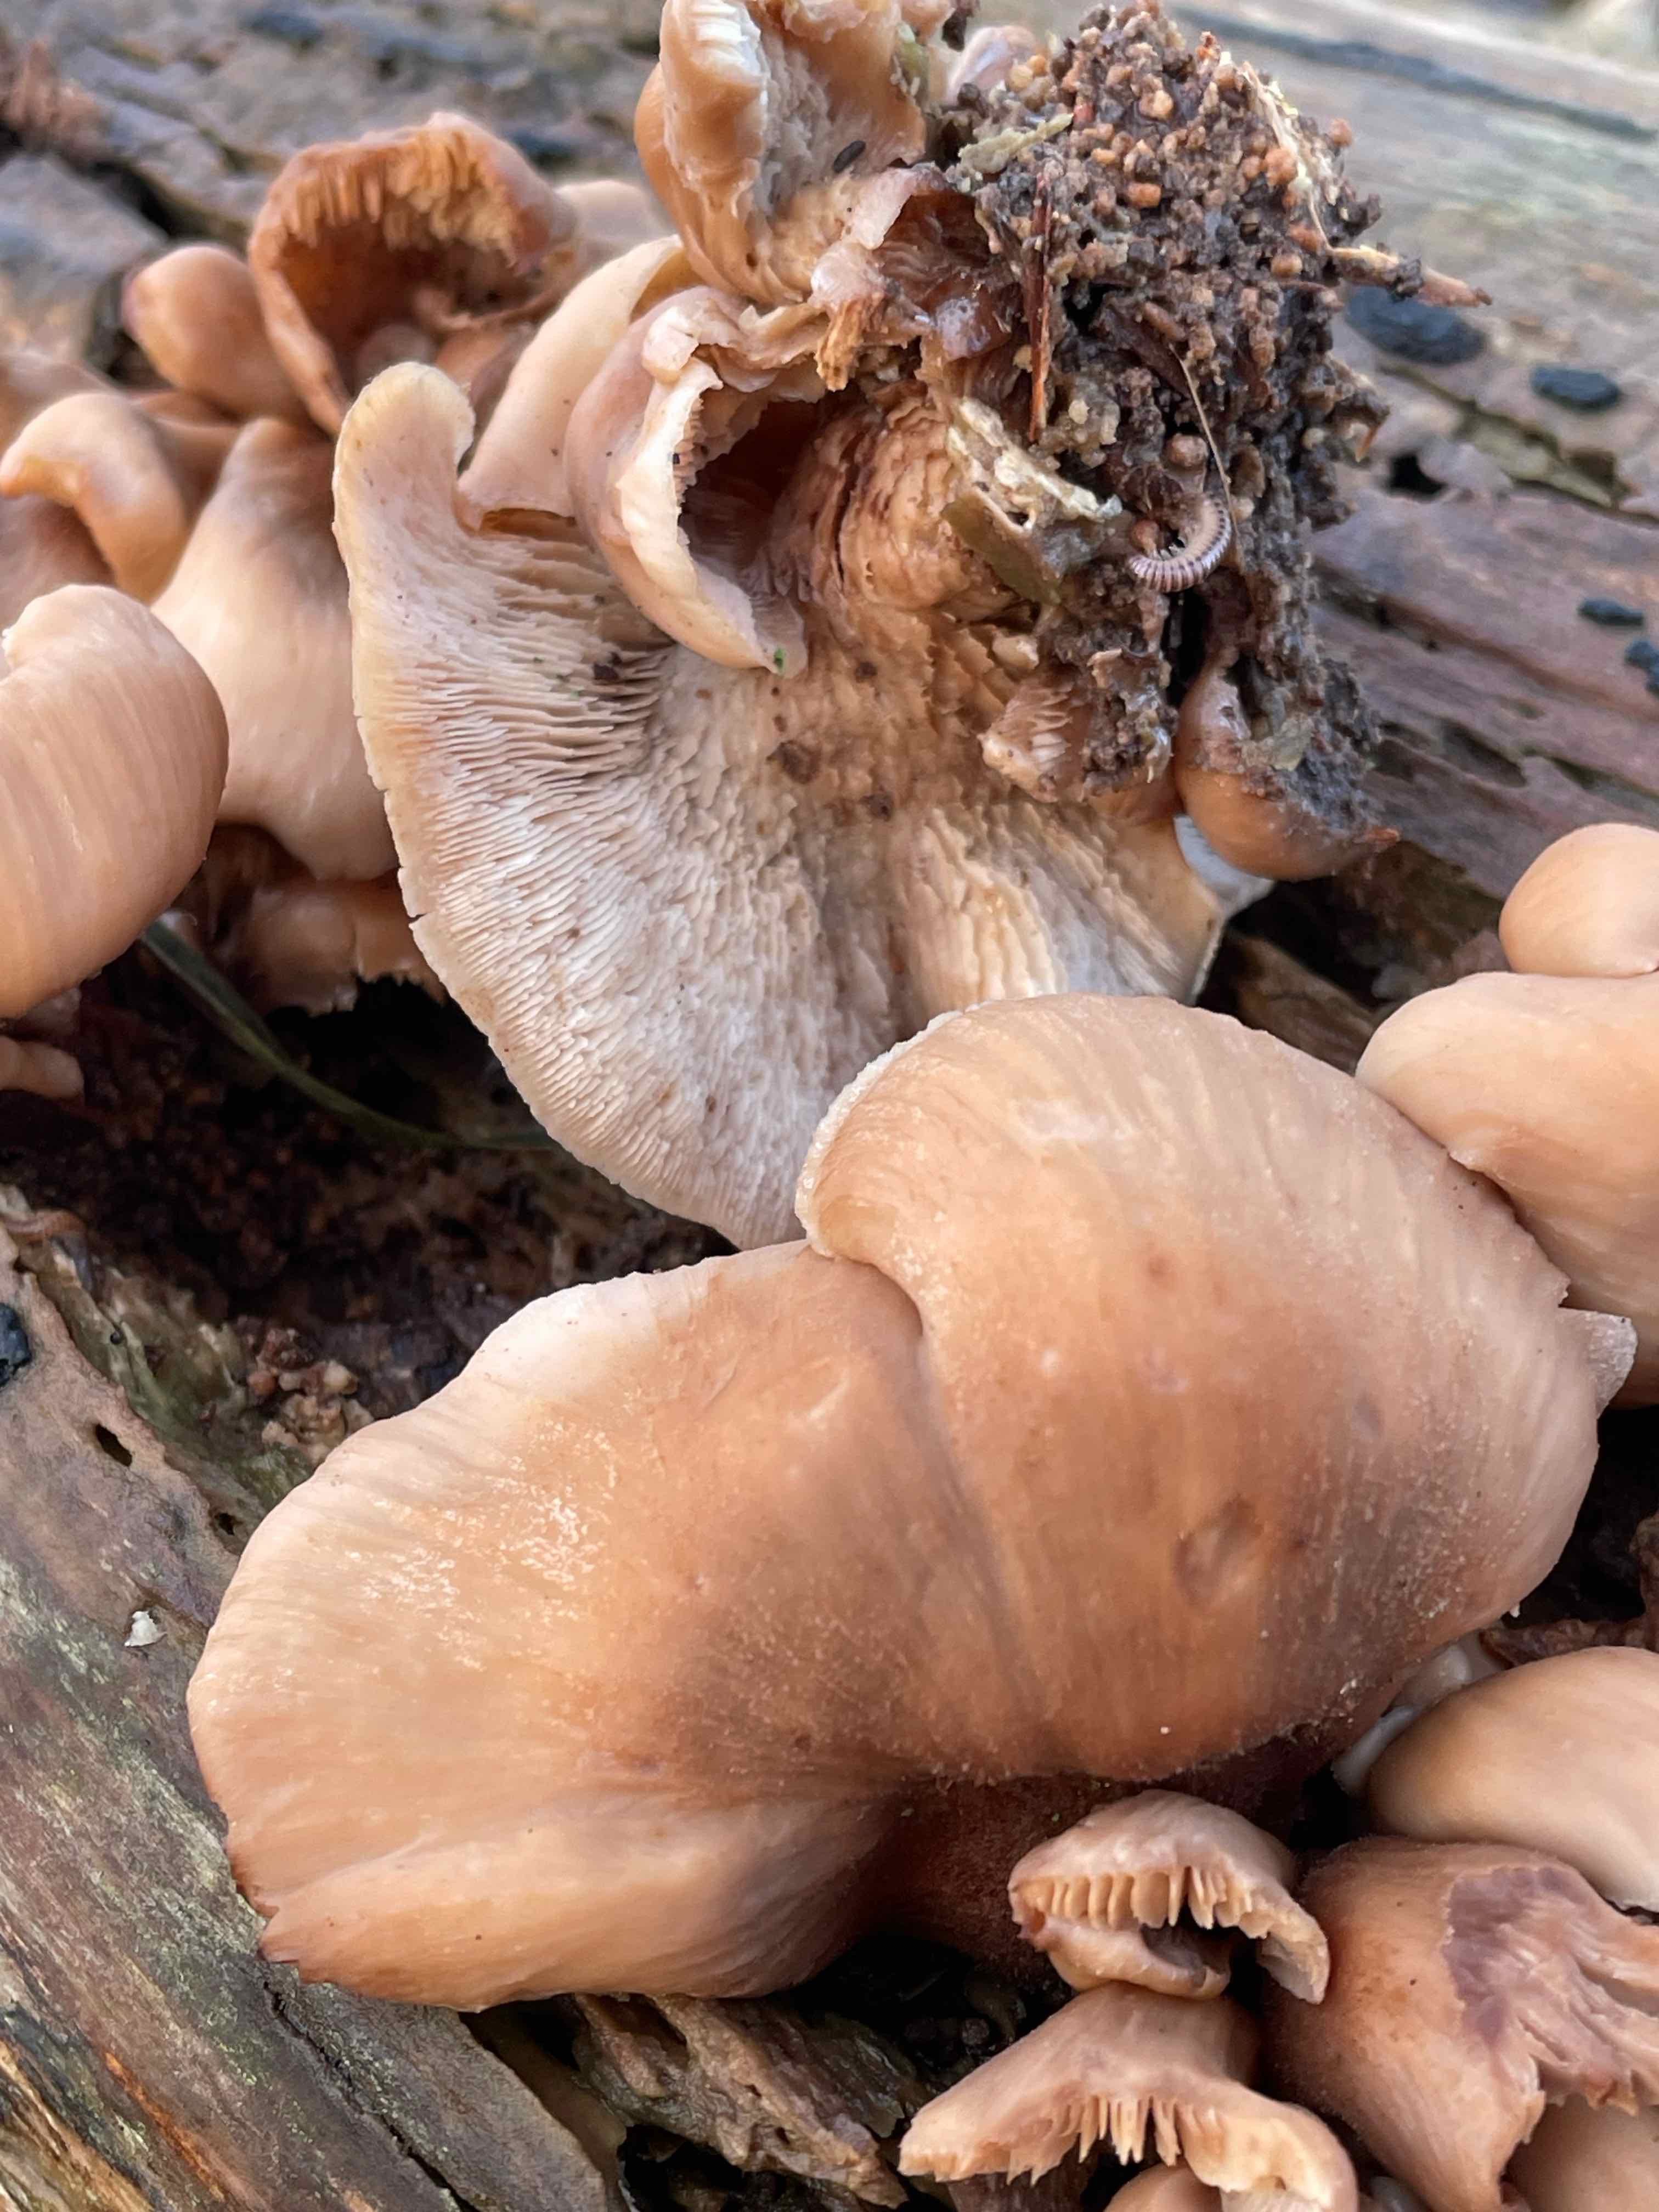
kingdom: Fungi
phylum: Basidiomycota
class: Agaricomycetes
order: Russulales
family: Auriscalpiaceae
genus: Lentinellus
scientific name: Lentinellus ursinus
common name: børstehåret savbladhat
